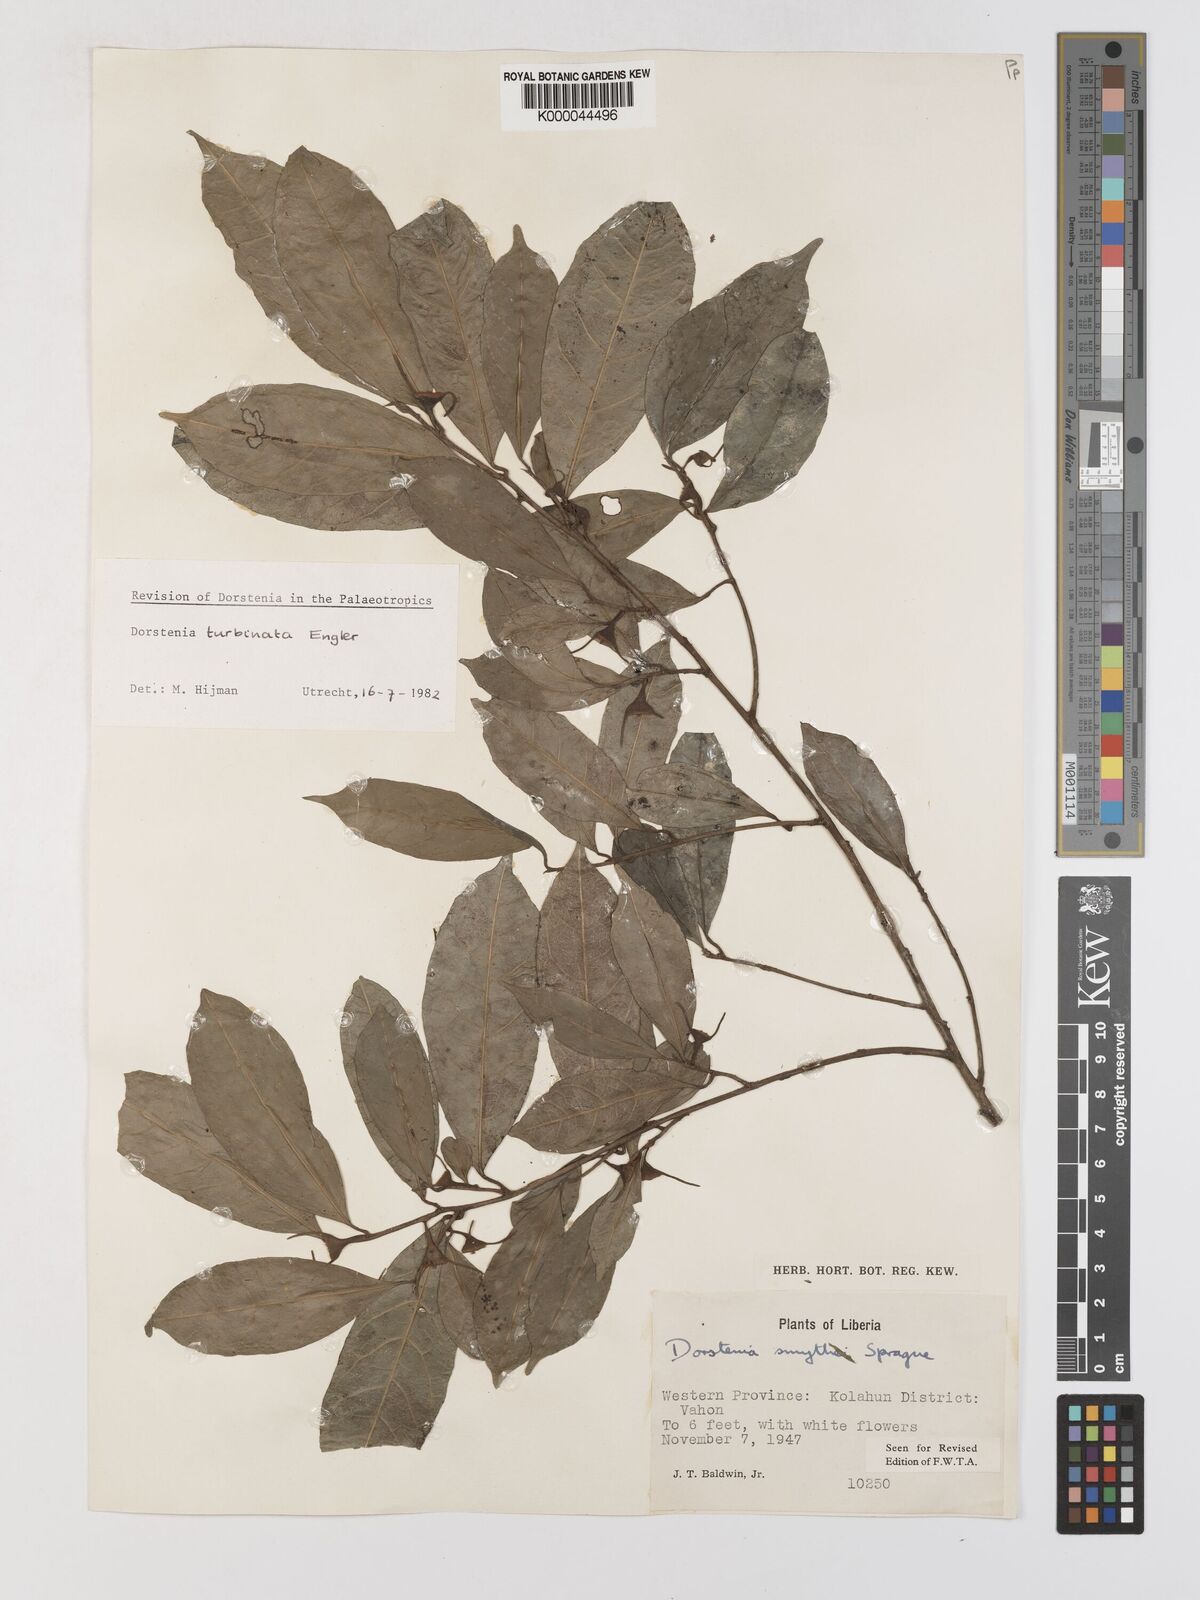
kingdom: Plantae
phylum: Tracheophyta
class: Magnoliopsida
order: Rosales
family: Moraceae
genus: Hijmania
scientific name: Hijmania turbinata
